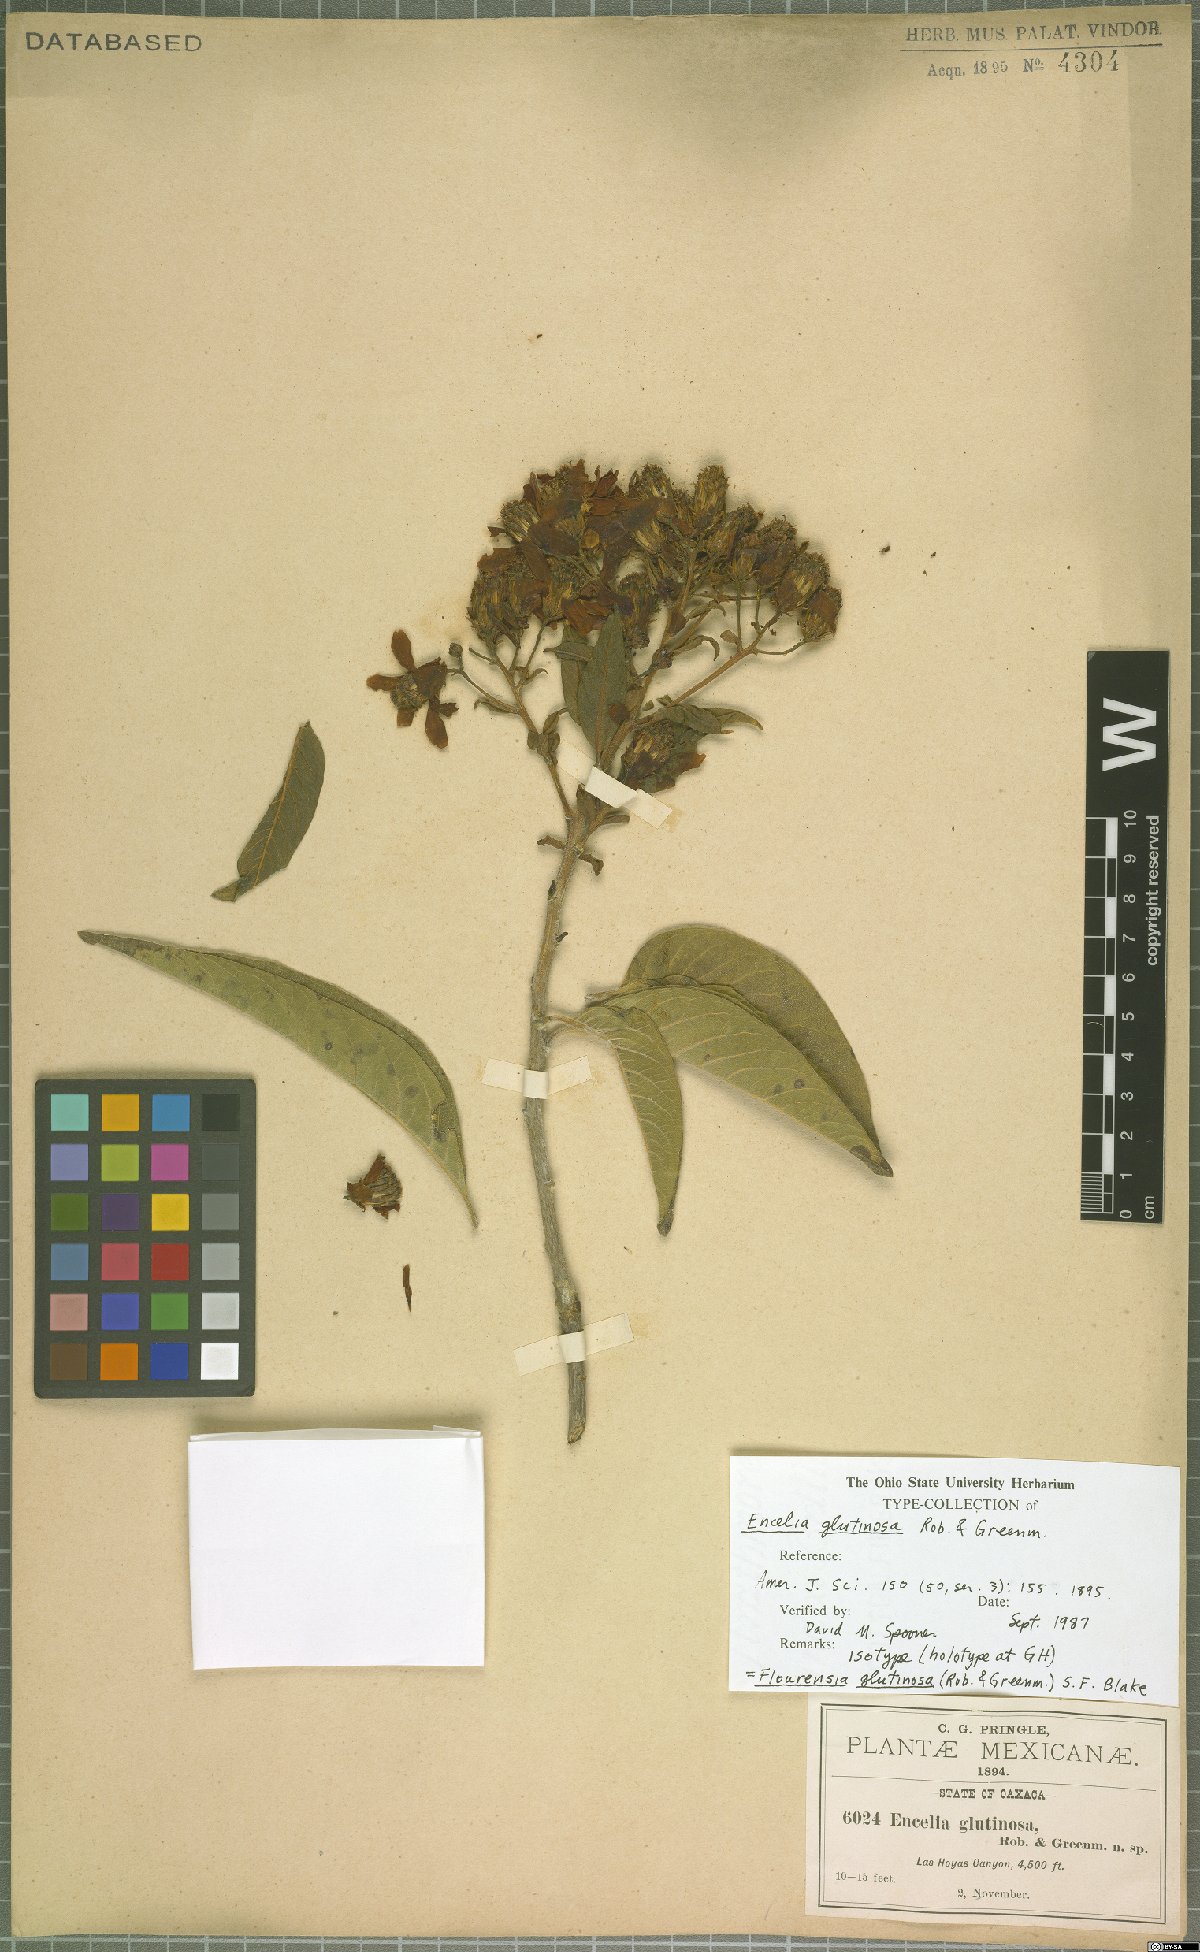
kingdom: Plantae
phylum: Tracheophyta
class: Magnoliopsida
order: Asterales
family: Asteraceae
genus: Flourensia
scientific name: Flourensia glutinosa
